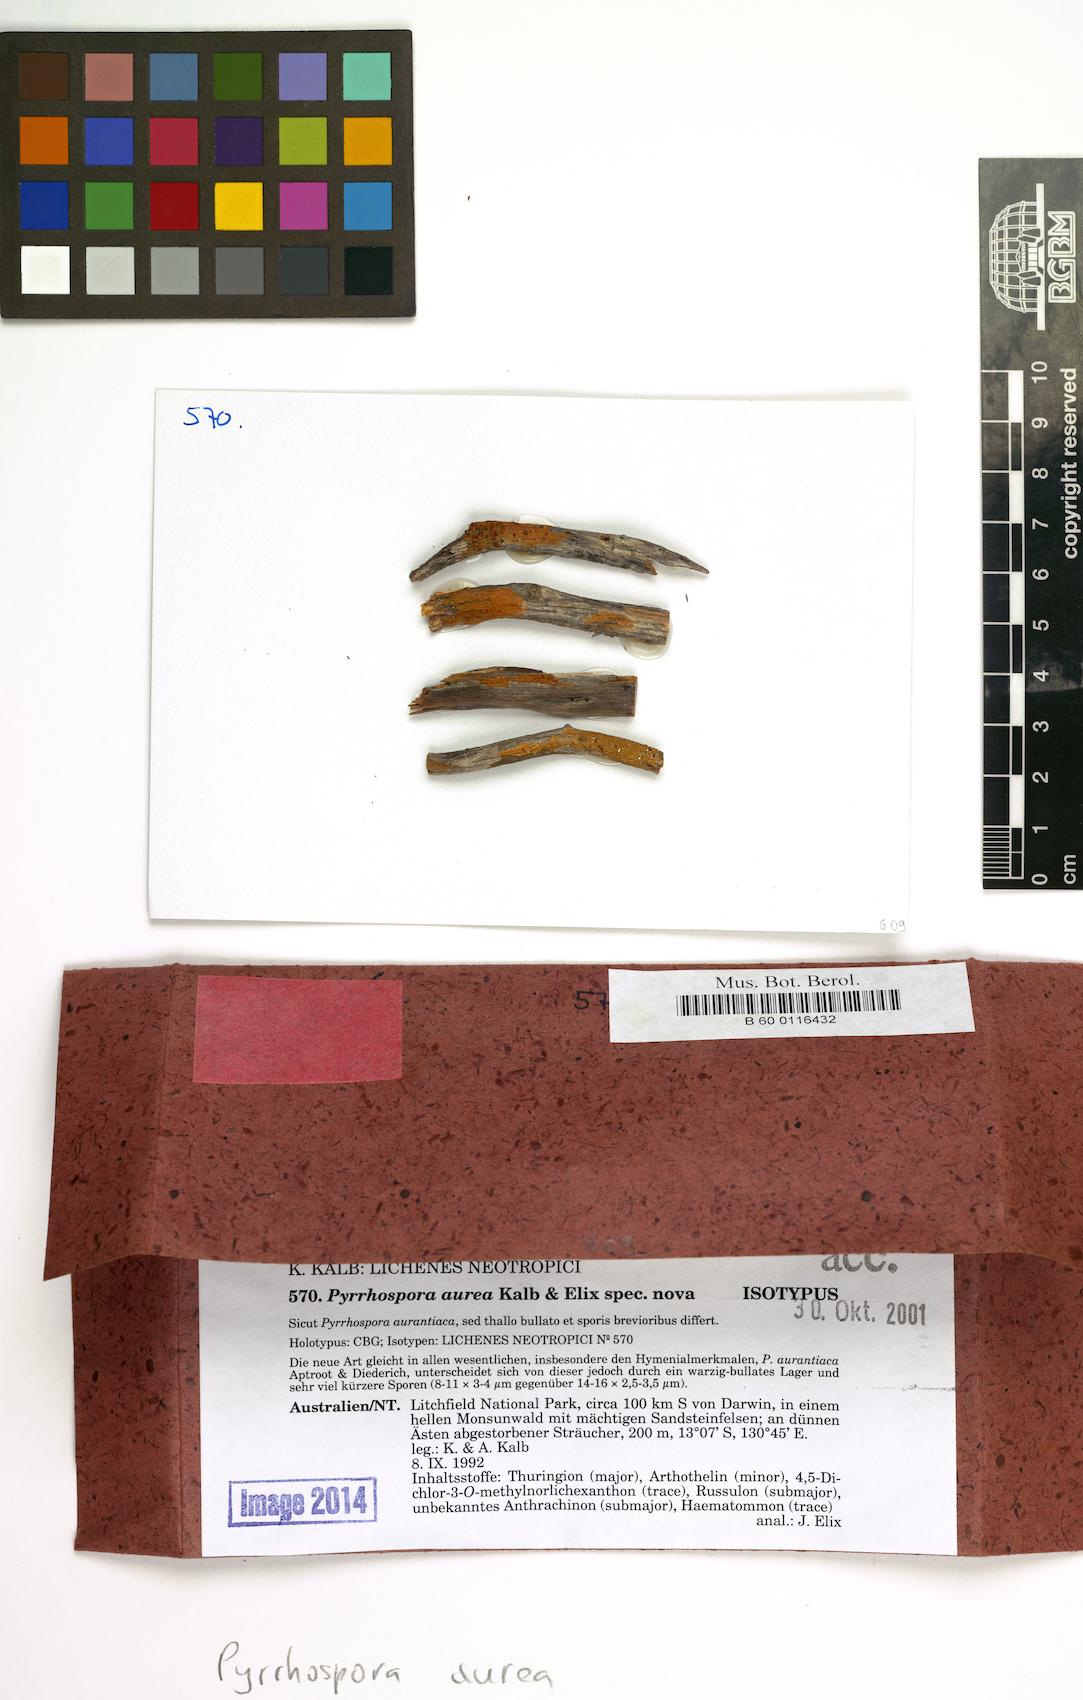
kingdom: Fungi
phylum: Ascomycota
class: Lecanoromycetes
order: Lecanorales
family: Ramboldiaceae
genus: Ramboldia
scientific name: Ramboldia aurea
